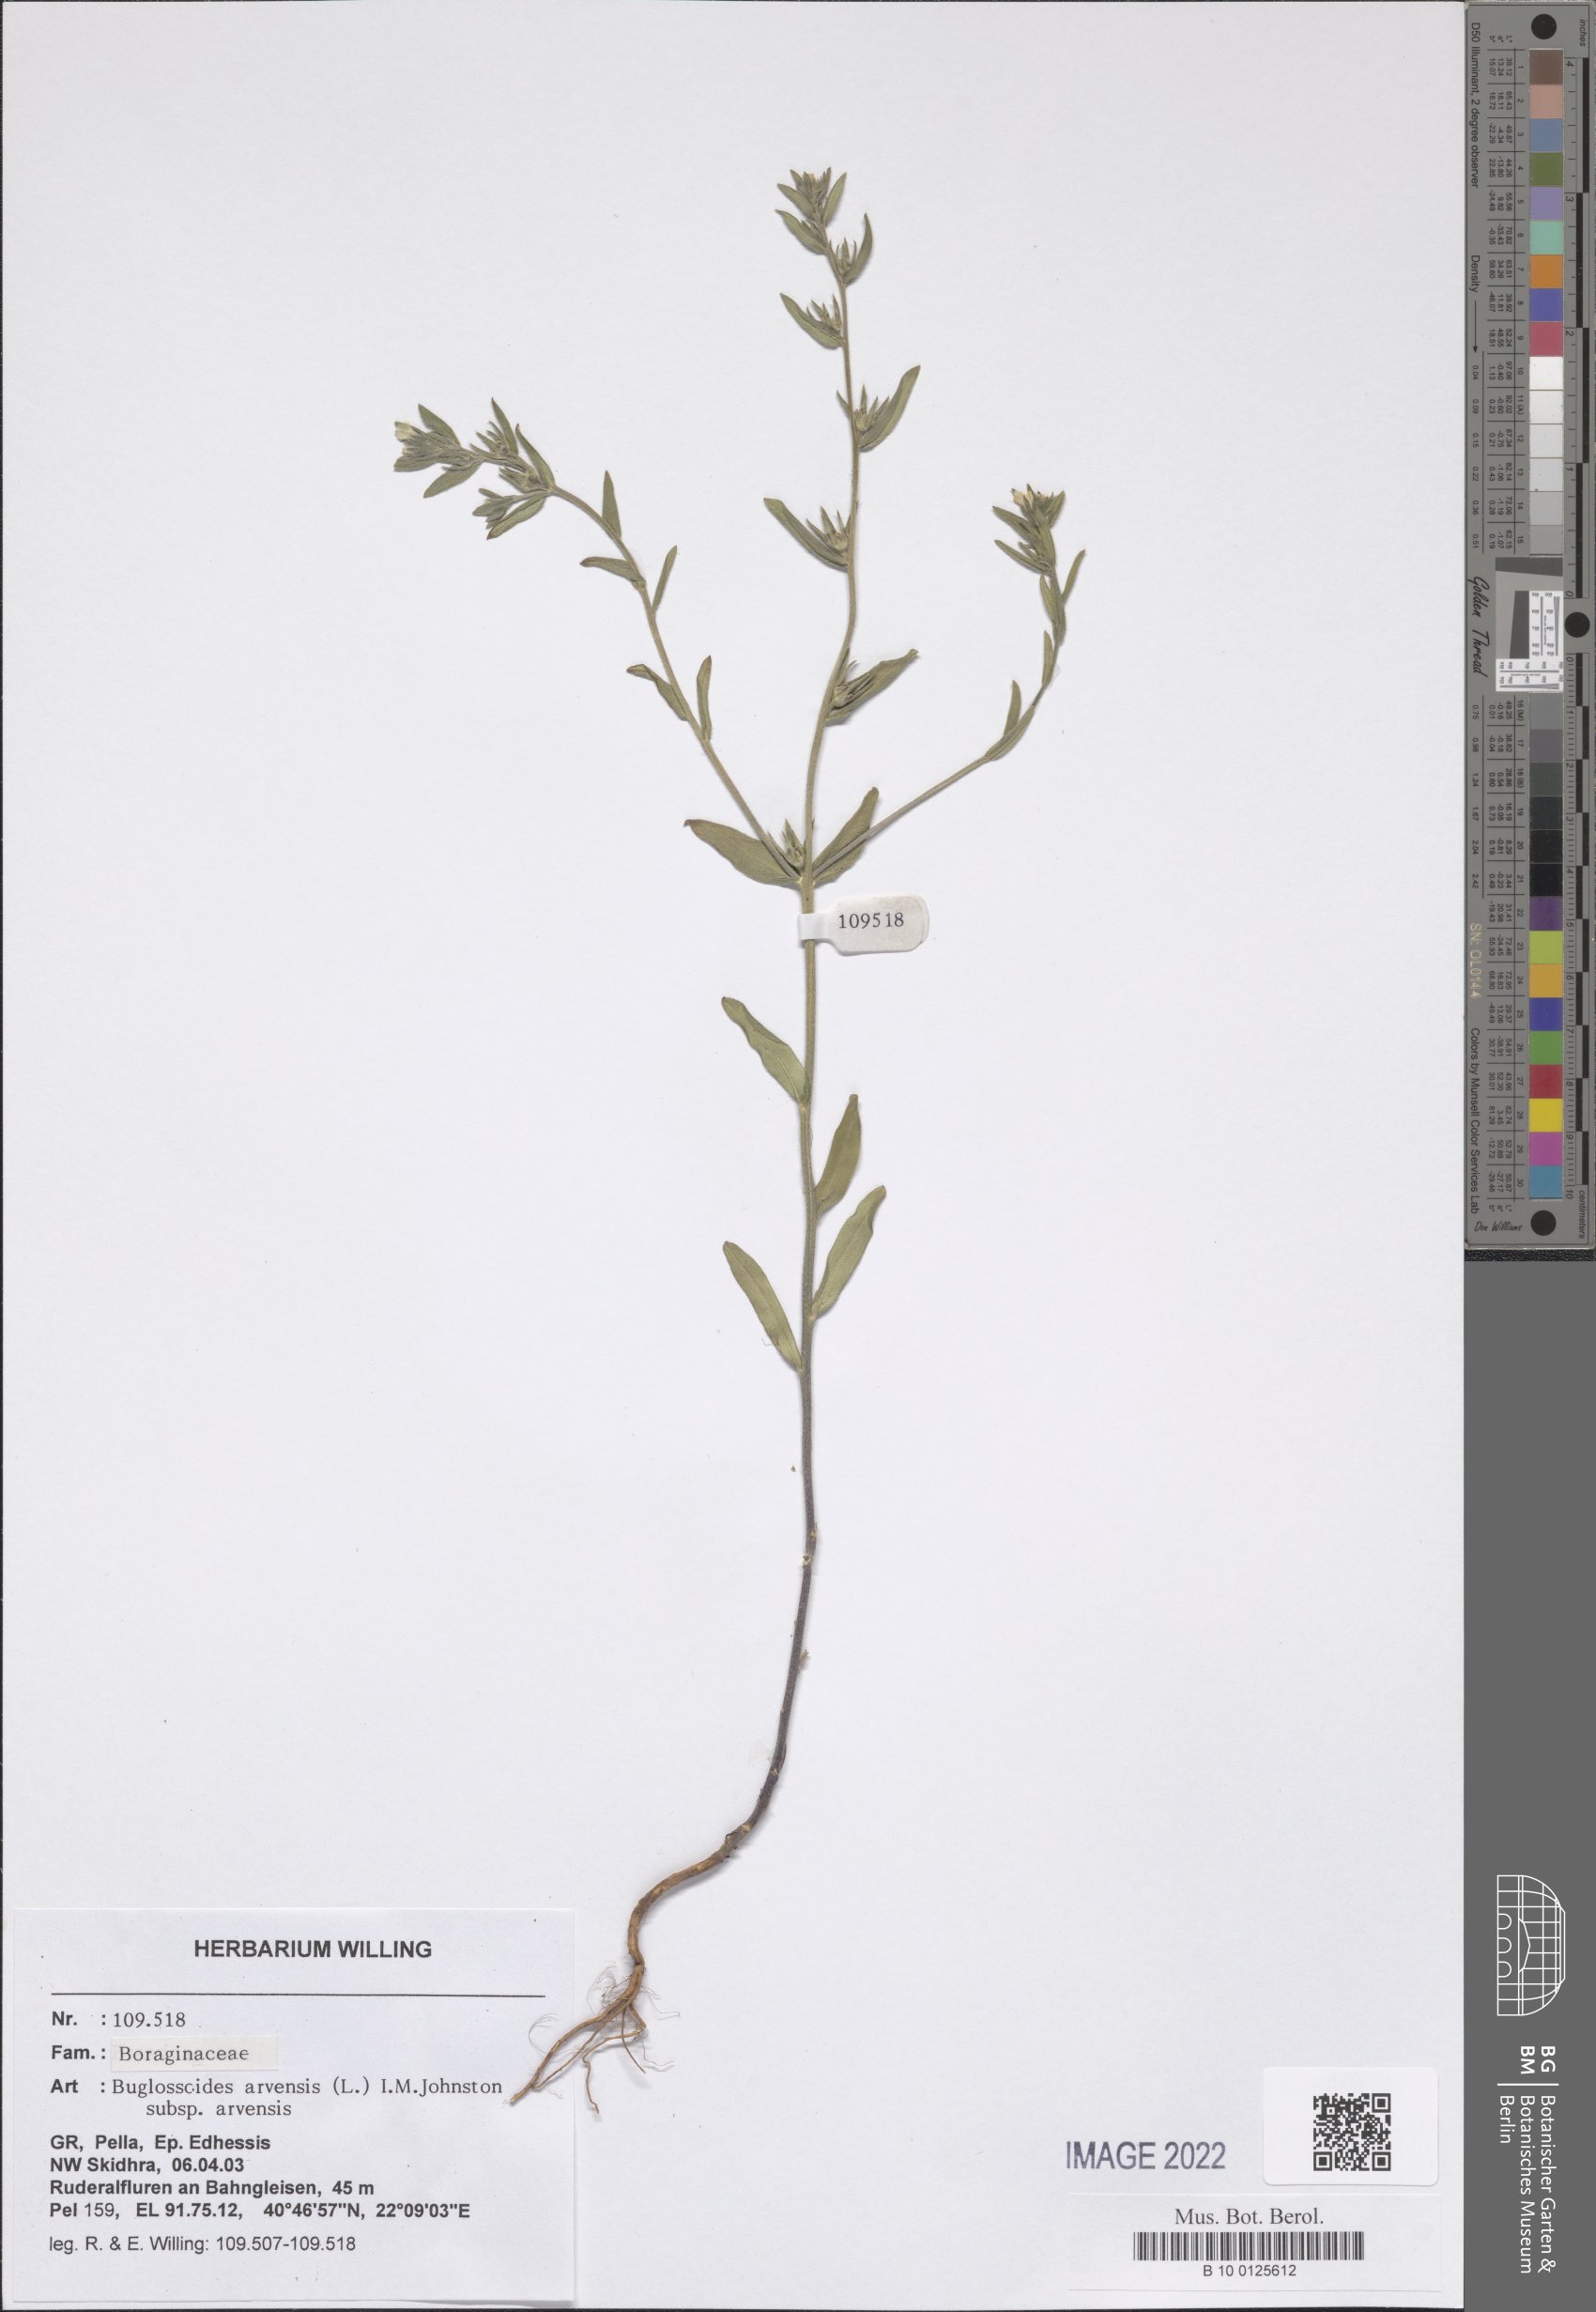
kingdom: Plantae
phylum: Tracheophyta
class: Magnoliopsida
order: Boraginales
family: Boraginaceae
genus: Buglossoides
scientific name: Buglossoides arvensis
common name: Corn gromwell
